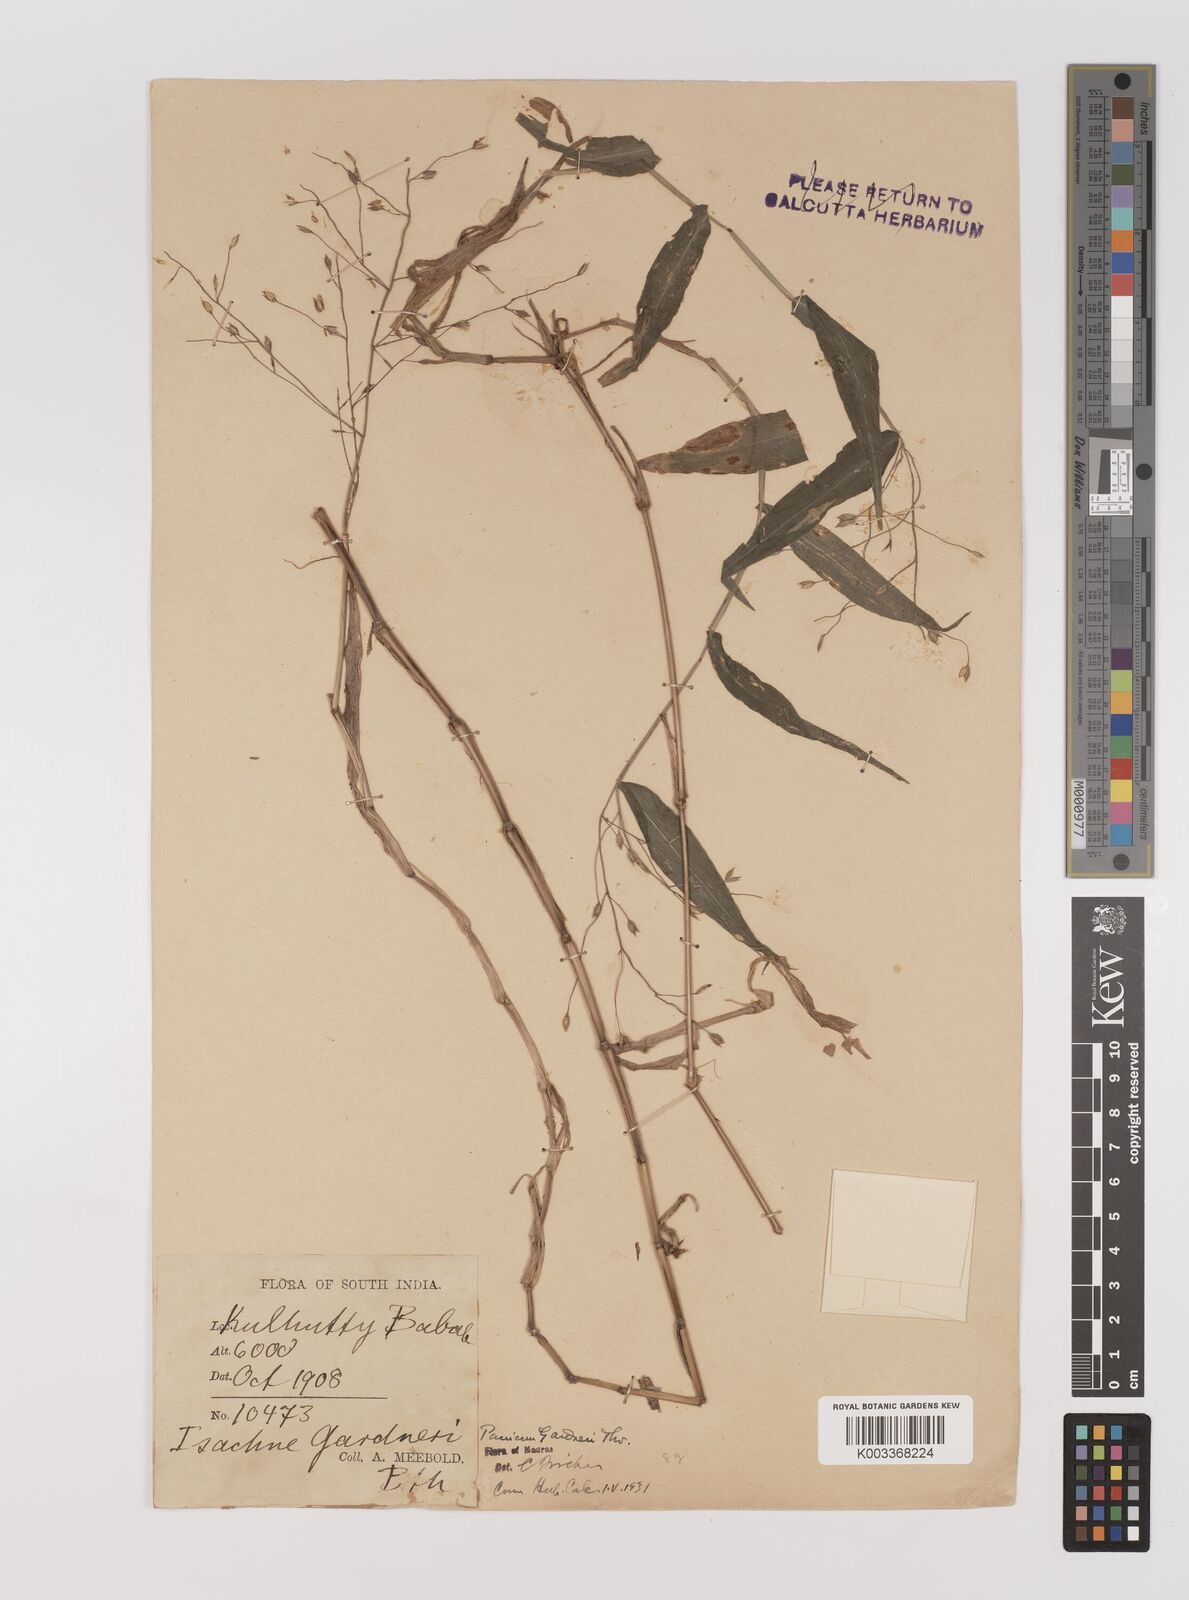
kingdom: Plantae
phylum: Tracheophyta
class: Liliopsida
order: Poales
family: Poaceae
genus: Panicum
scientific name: Panicum gardneri
